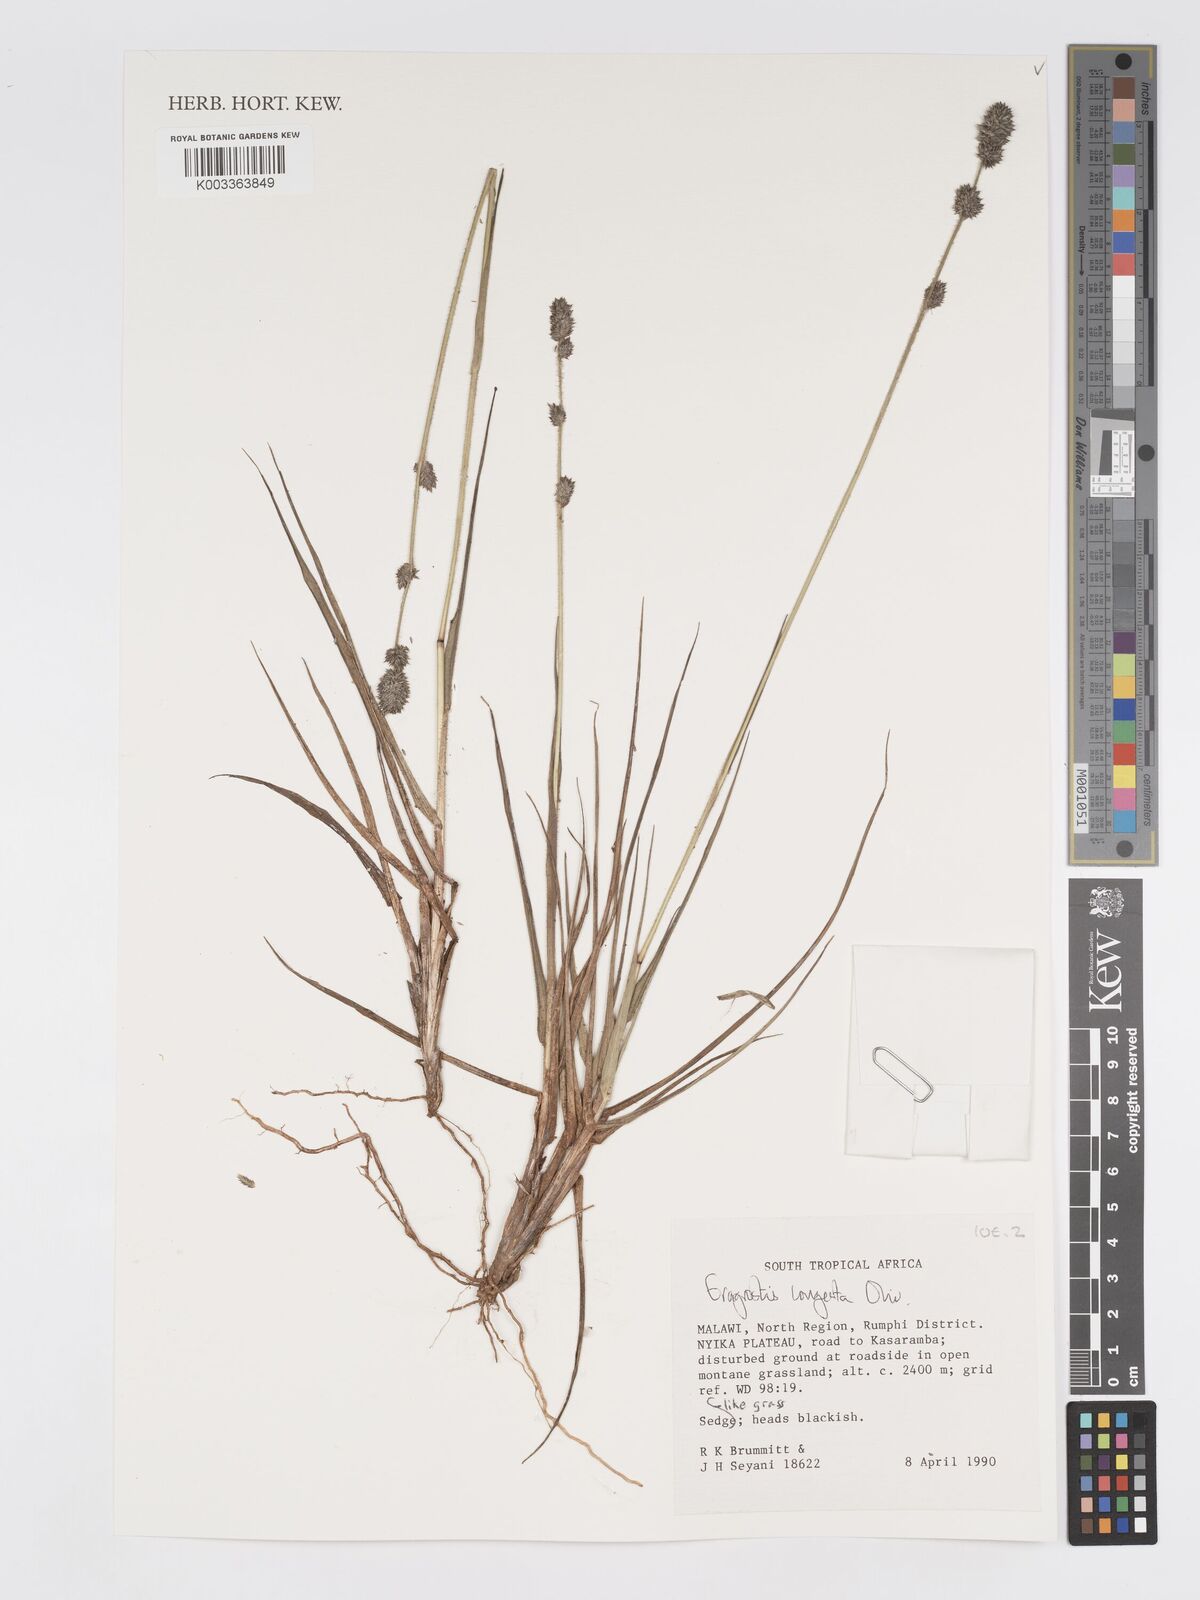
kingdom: Plantae
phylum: Tracheophyta
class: Liliopsida
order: Poales
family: Poaceae
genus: Eragrostis
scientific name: Eragrostis congesta
